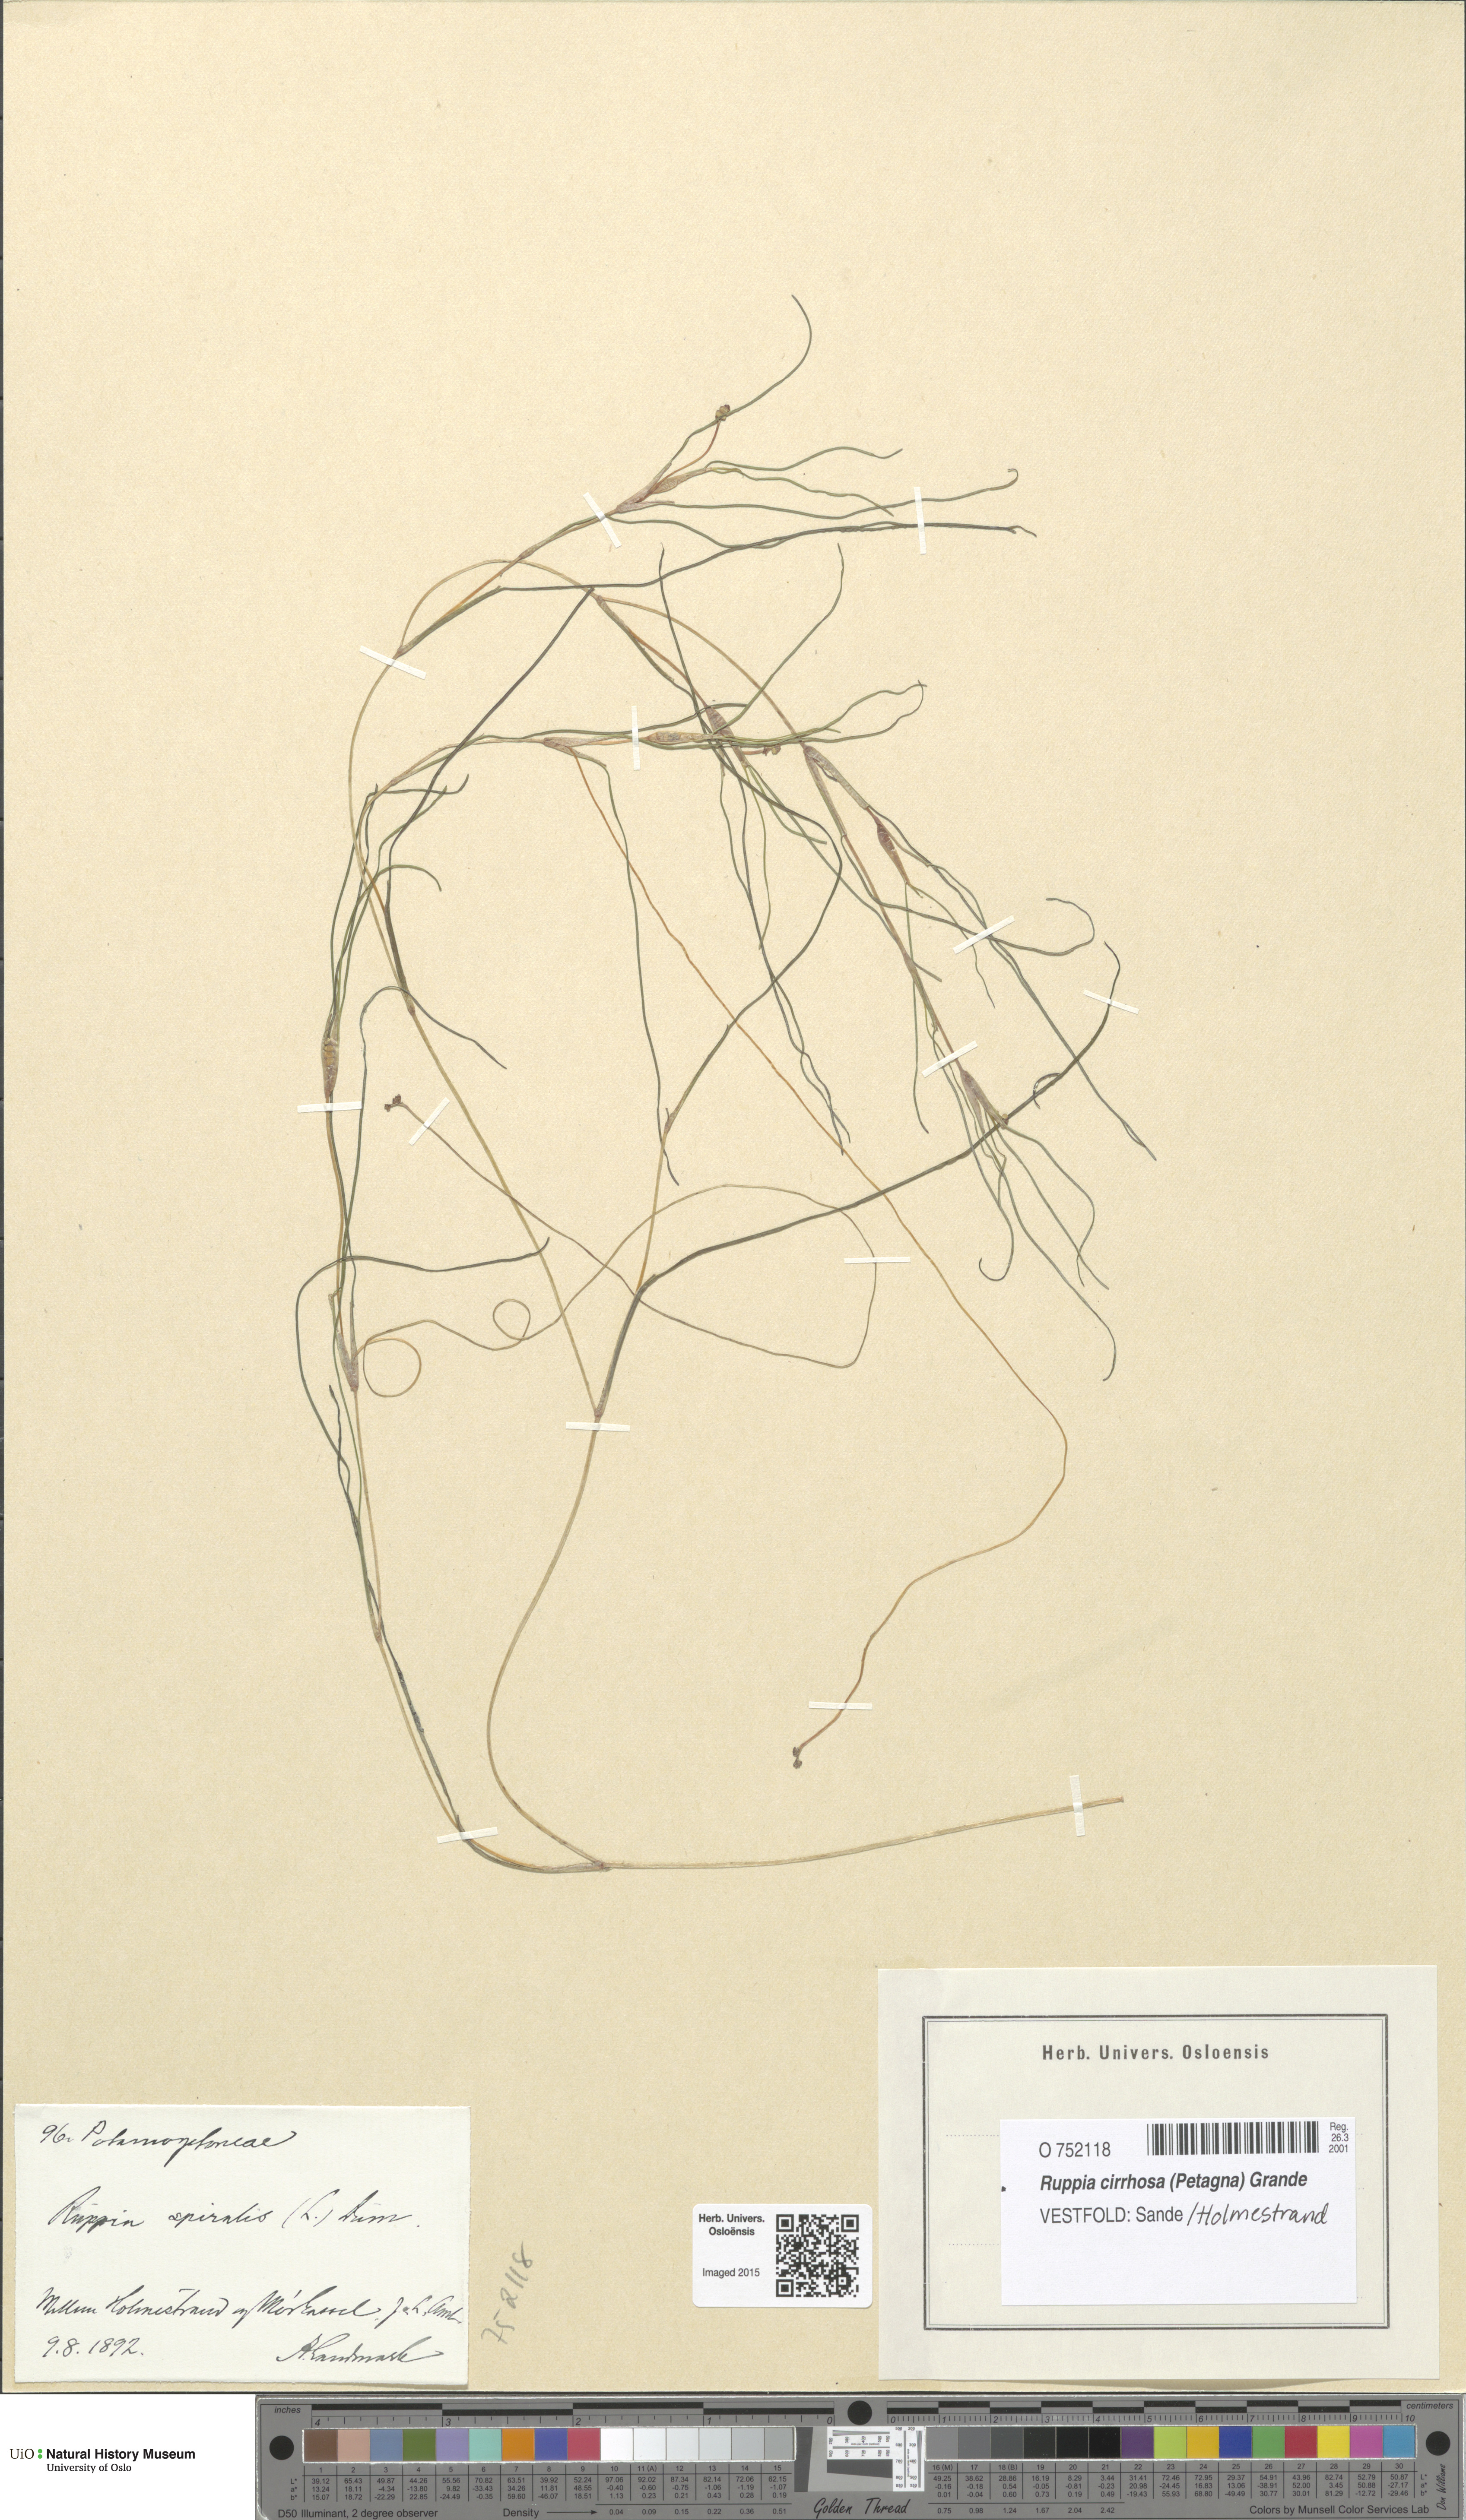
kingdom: Plantae
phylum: Tracheophyta
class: Liliopsida
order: Alismatales
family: Ruppiaceae
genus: Ruppia
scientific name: Ruppia cirrhosa
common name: Spiral tasselweed
